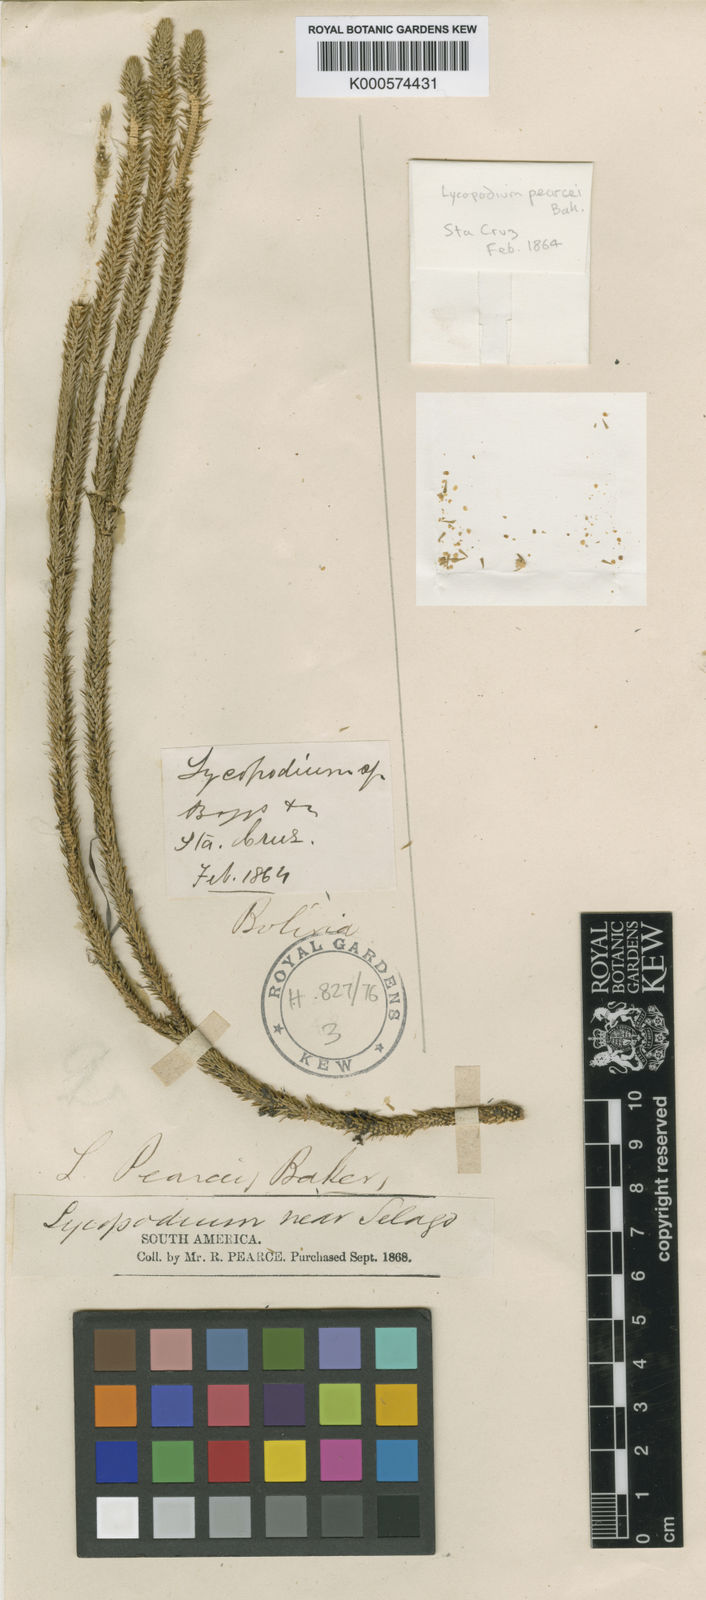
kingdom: Plantae
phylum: Tracheophyta
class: Lycopodiopsida
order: Lycopodiales
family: Lycopodiaceae
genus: Phlegmariurus
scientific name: Phlegmariurus reflexus
